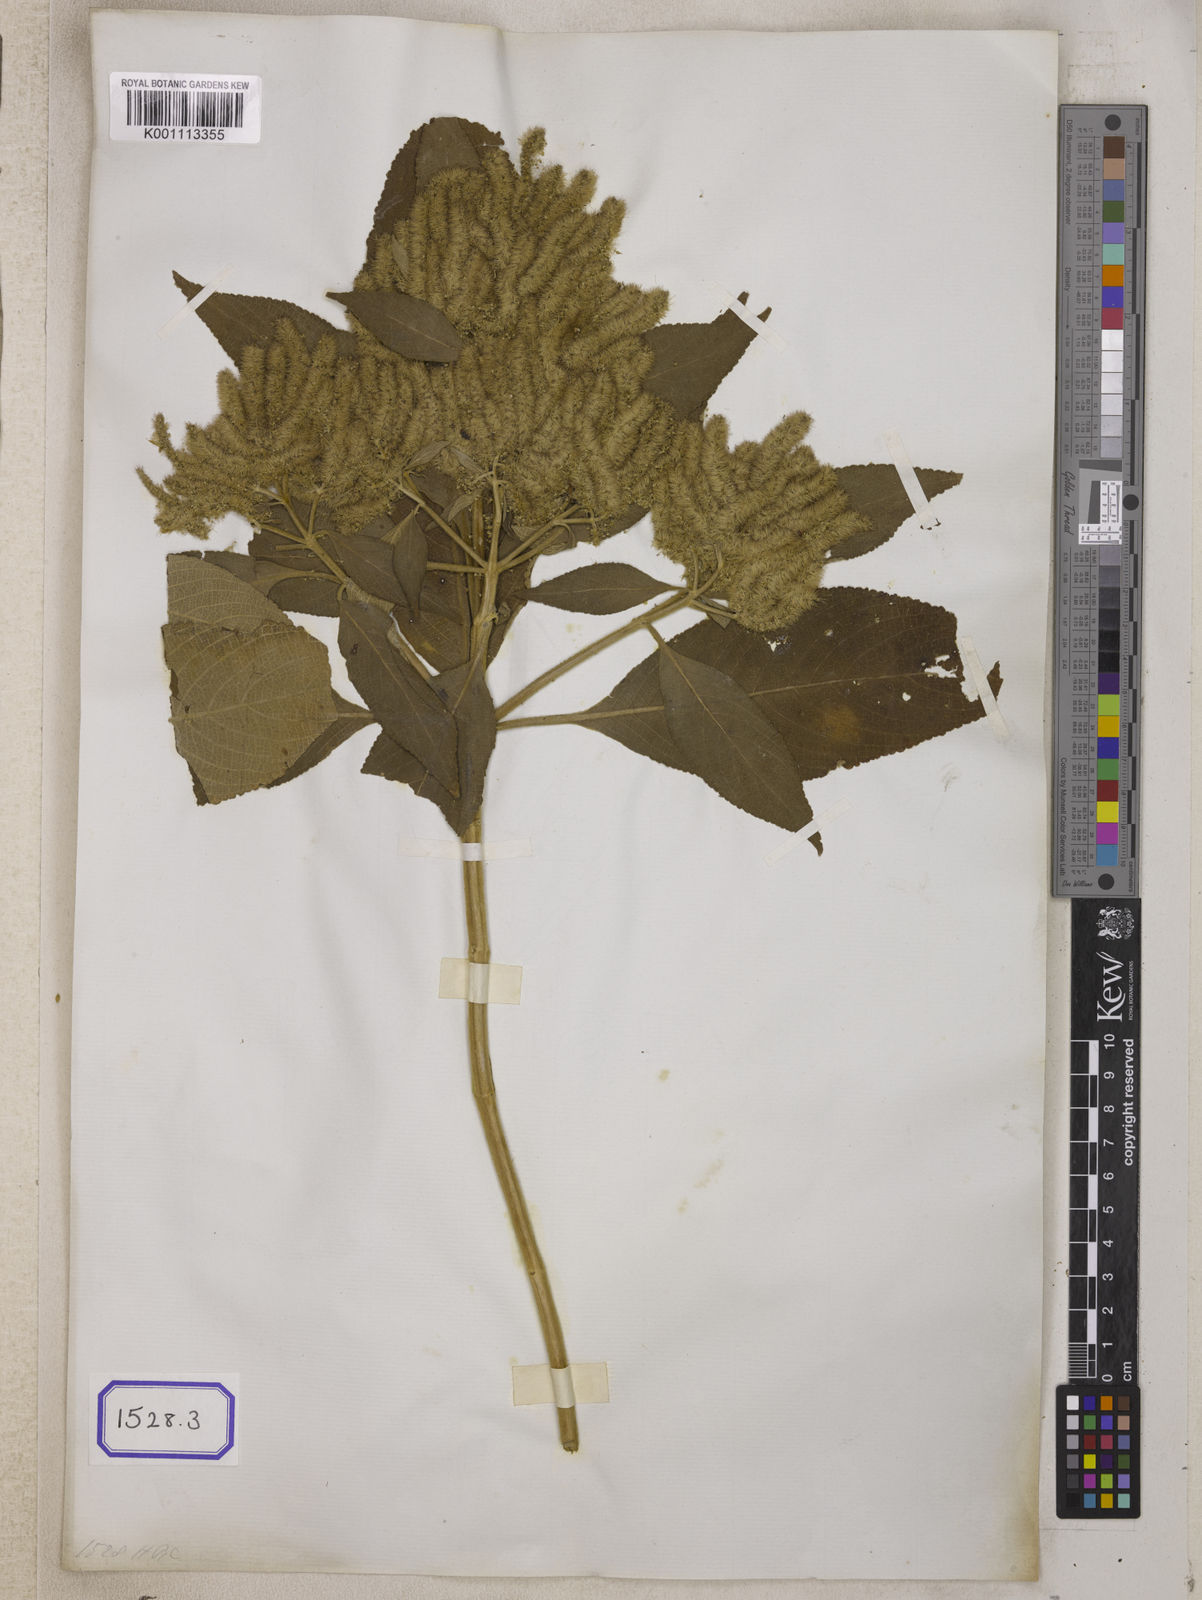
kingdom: Plantae
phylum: Tracheophyta
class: Magnoliopsida
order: Lamiales
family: Lamiaceae
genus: Colebrookea
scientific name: Colebrookea
